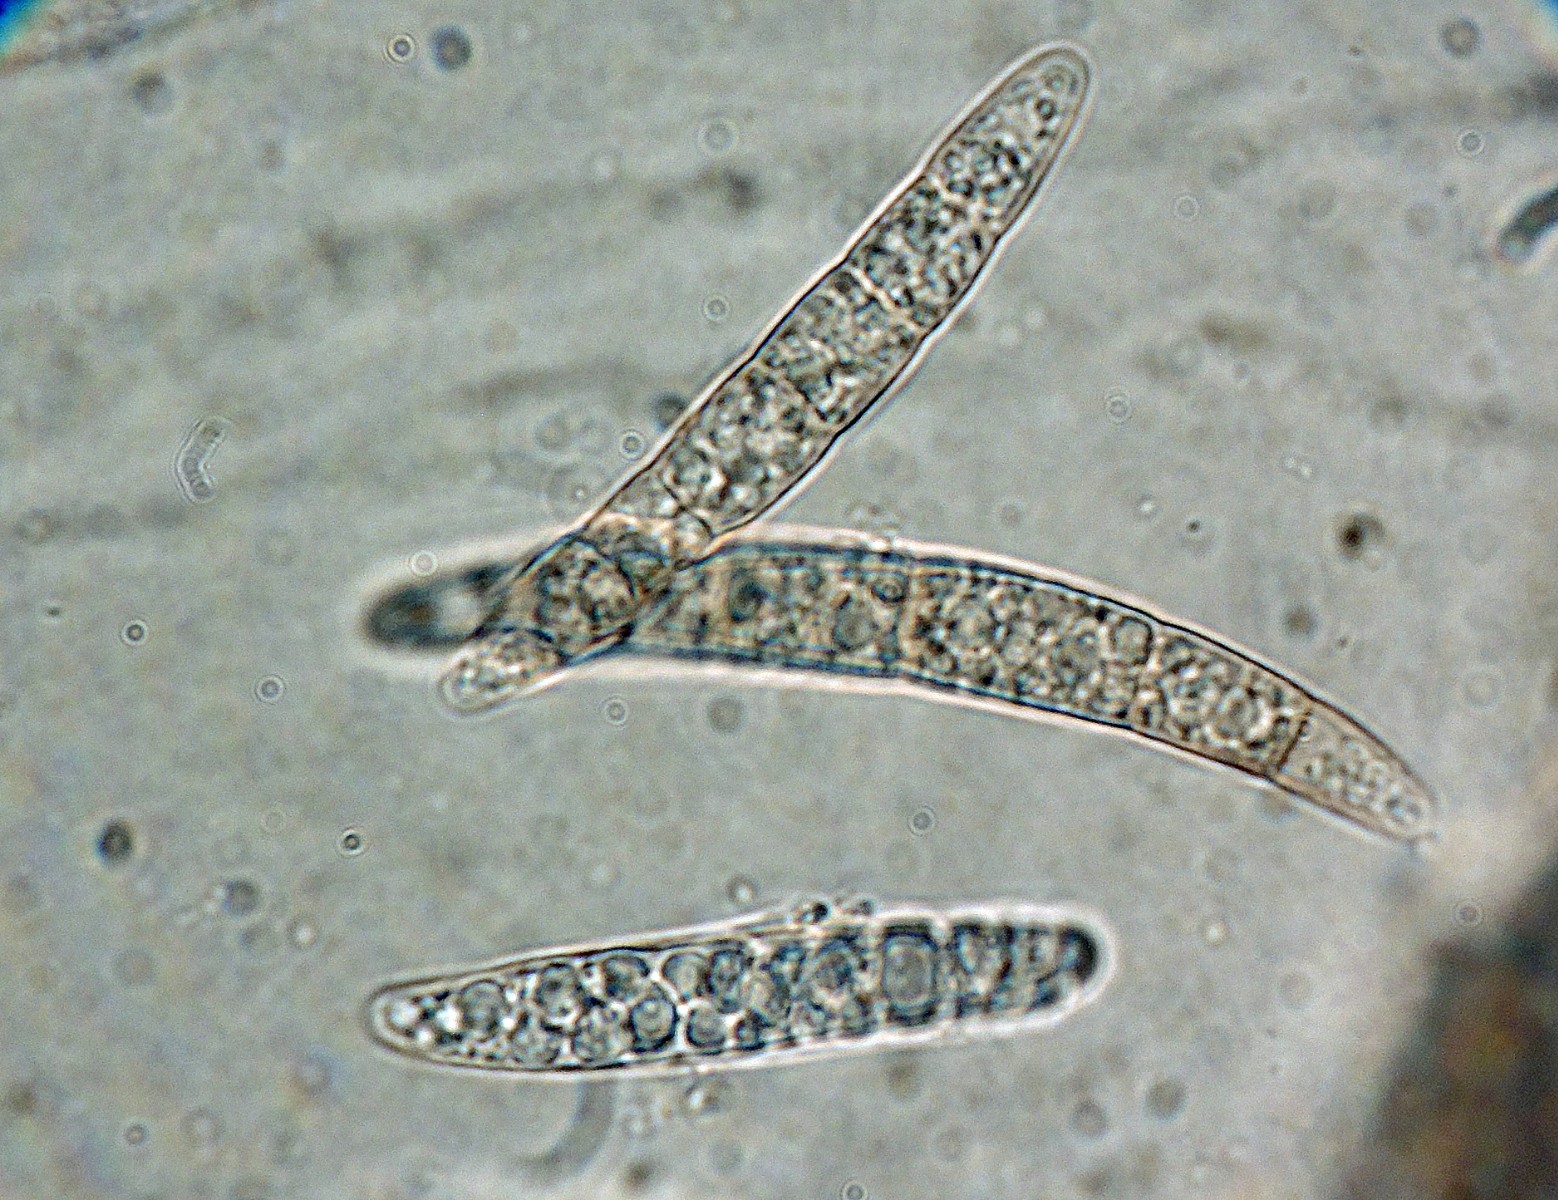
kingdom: Fungi
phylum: Ascomycota
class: Sordariomycetes
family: Pseudohalonectriaceae
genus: Pseudohalonectria
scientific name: Pseudohalonectria lutea
